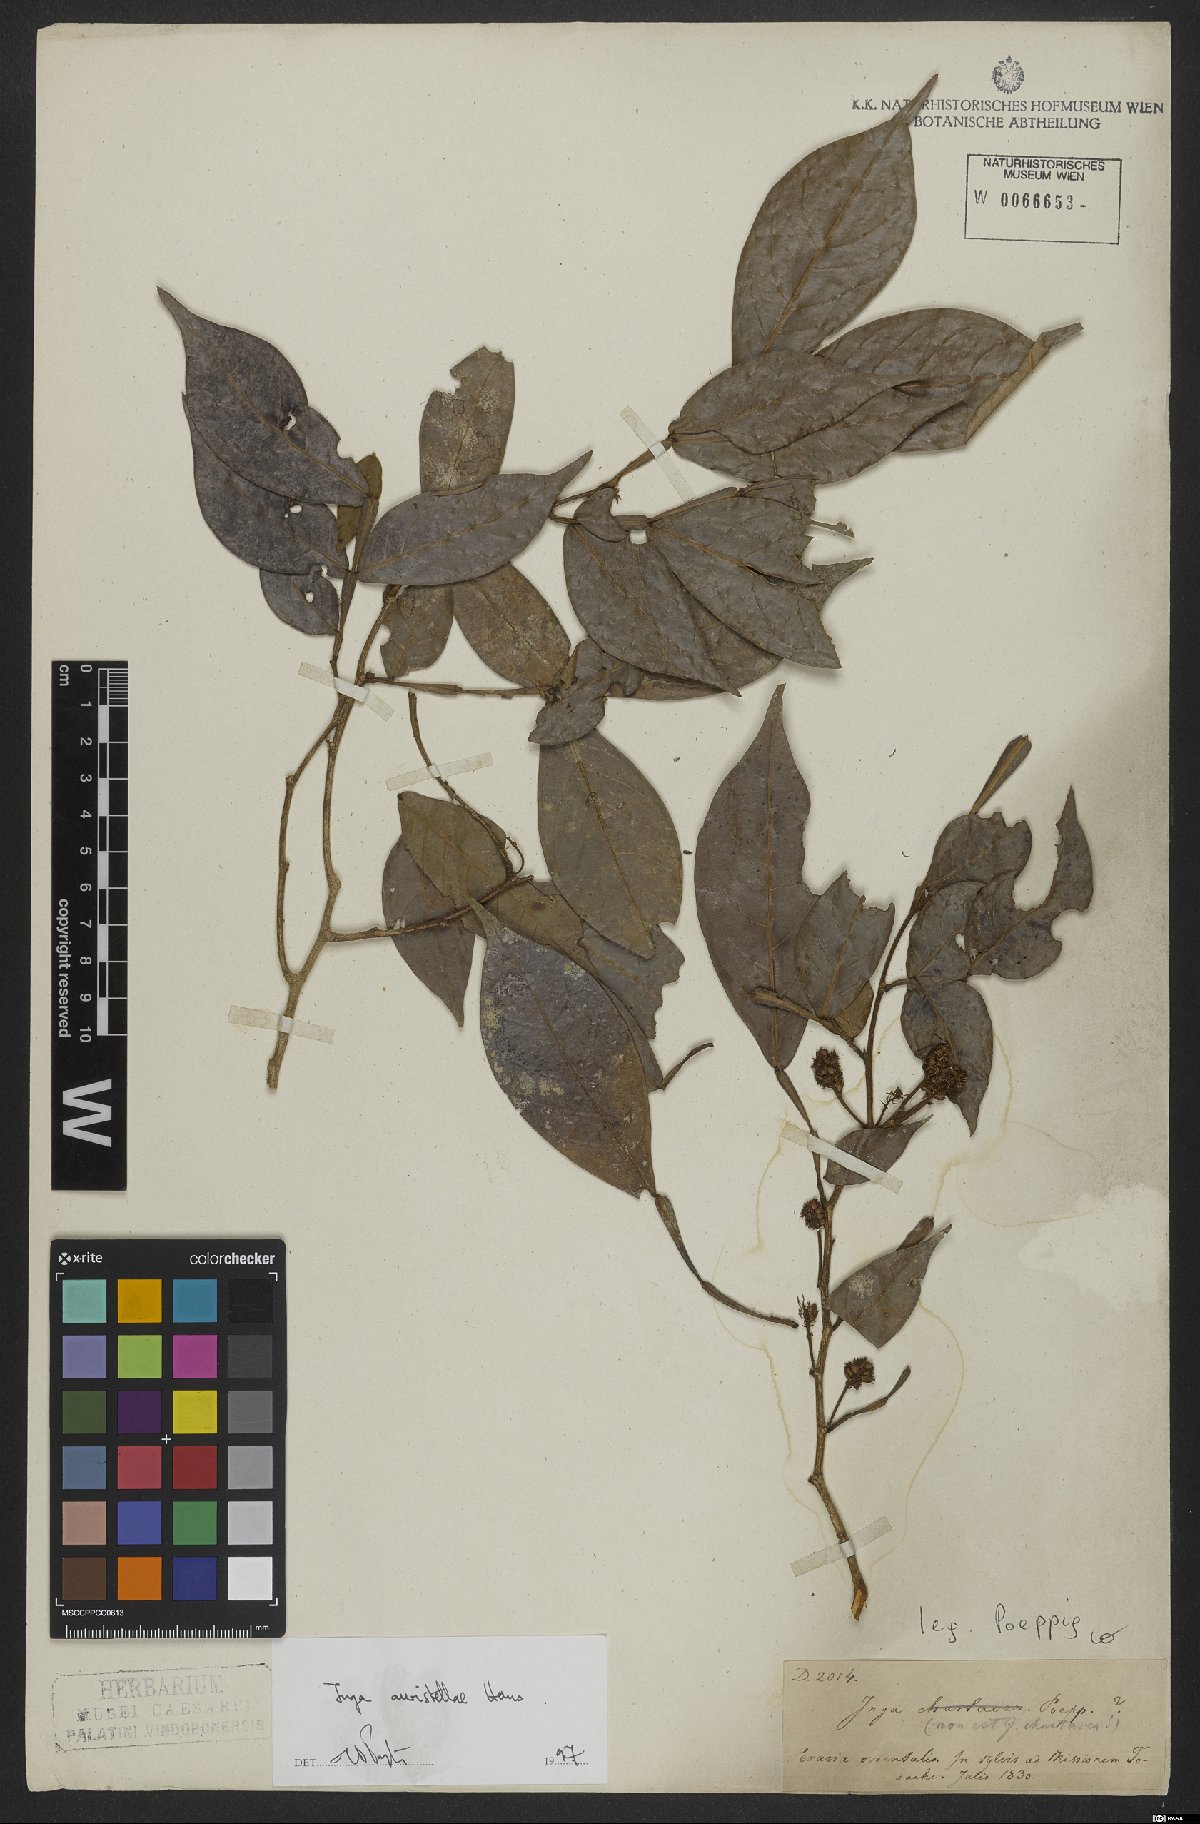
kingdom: Plantae
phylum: Tracheophyta
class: Magnoliopsida
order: Fabales
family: Fabaceae
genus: Inga
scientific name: Inga auristellae
